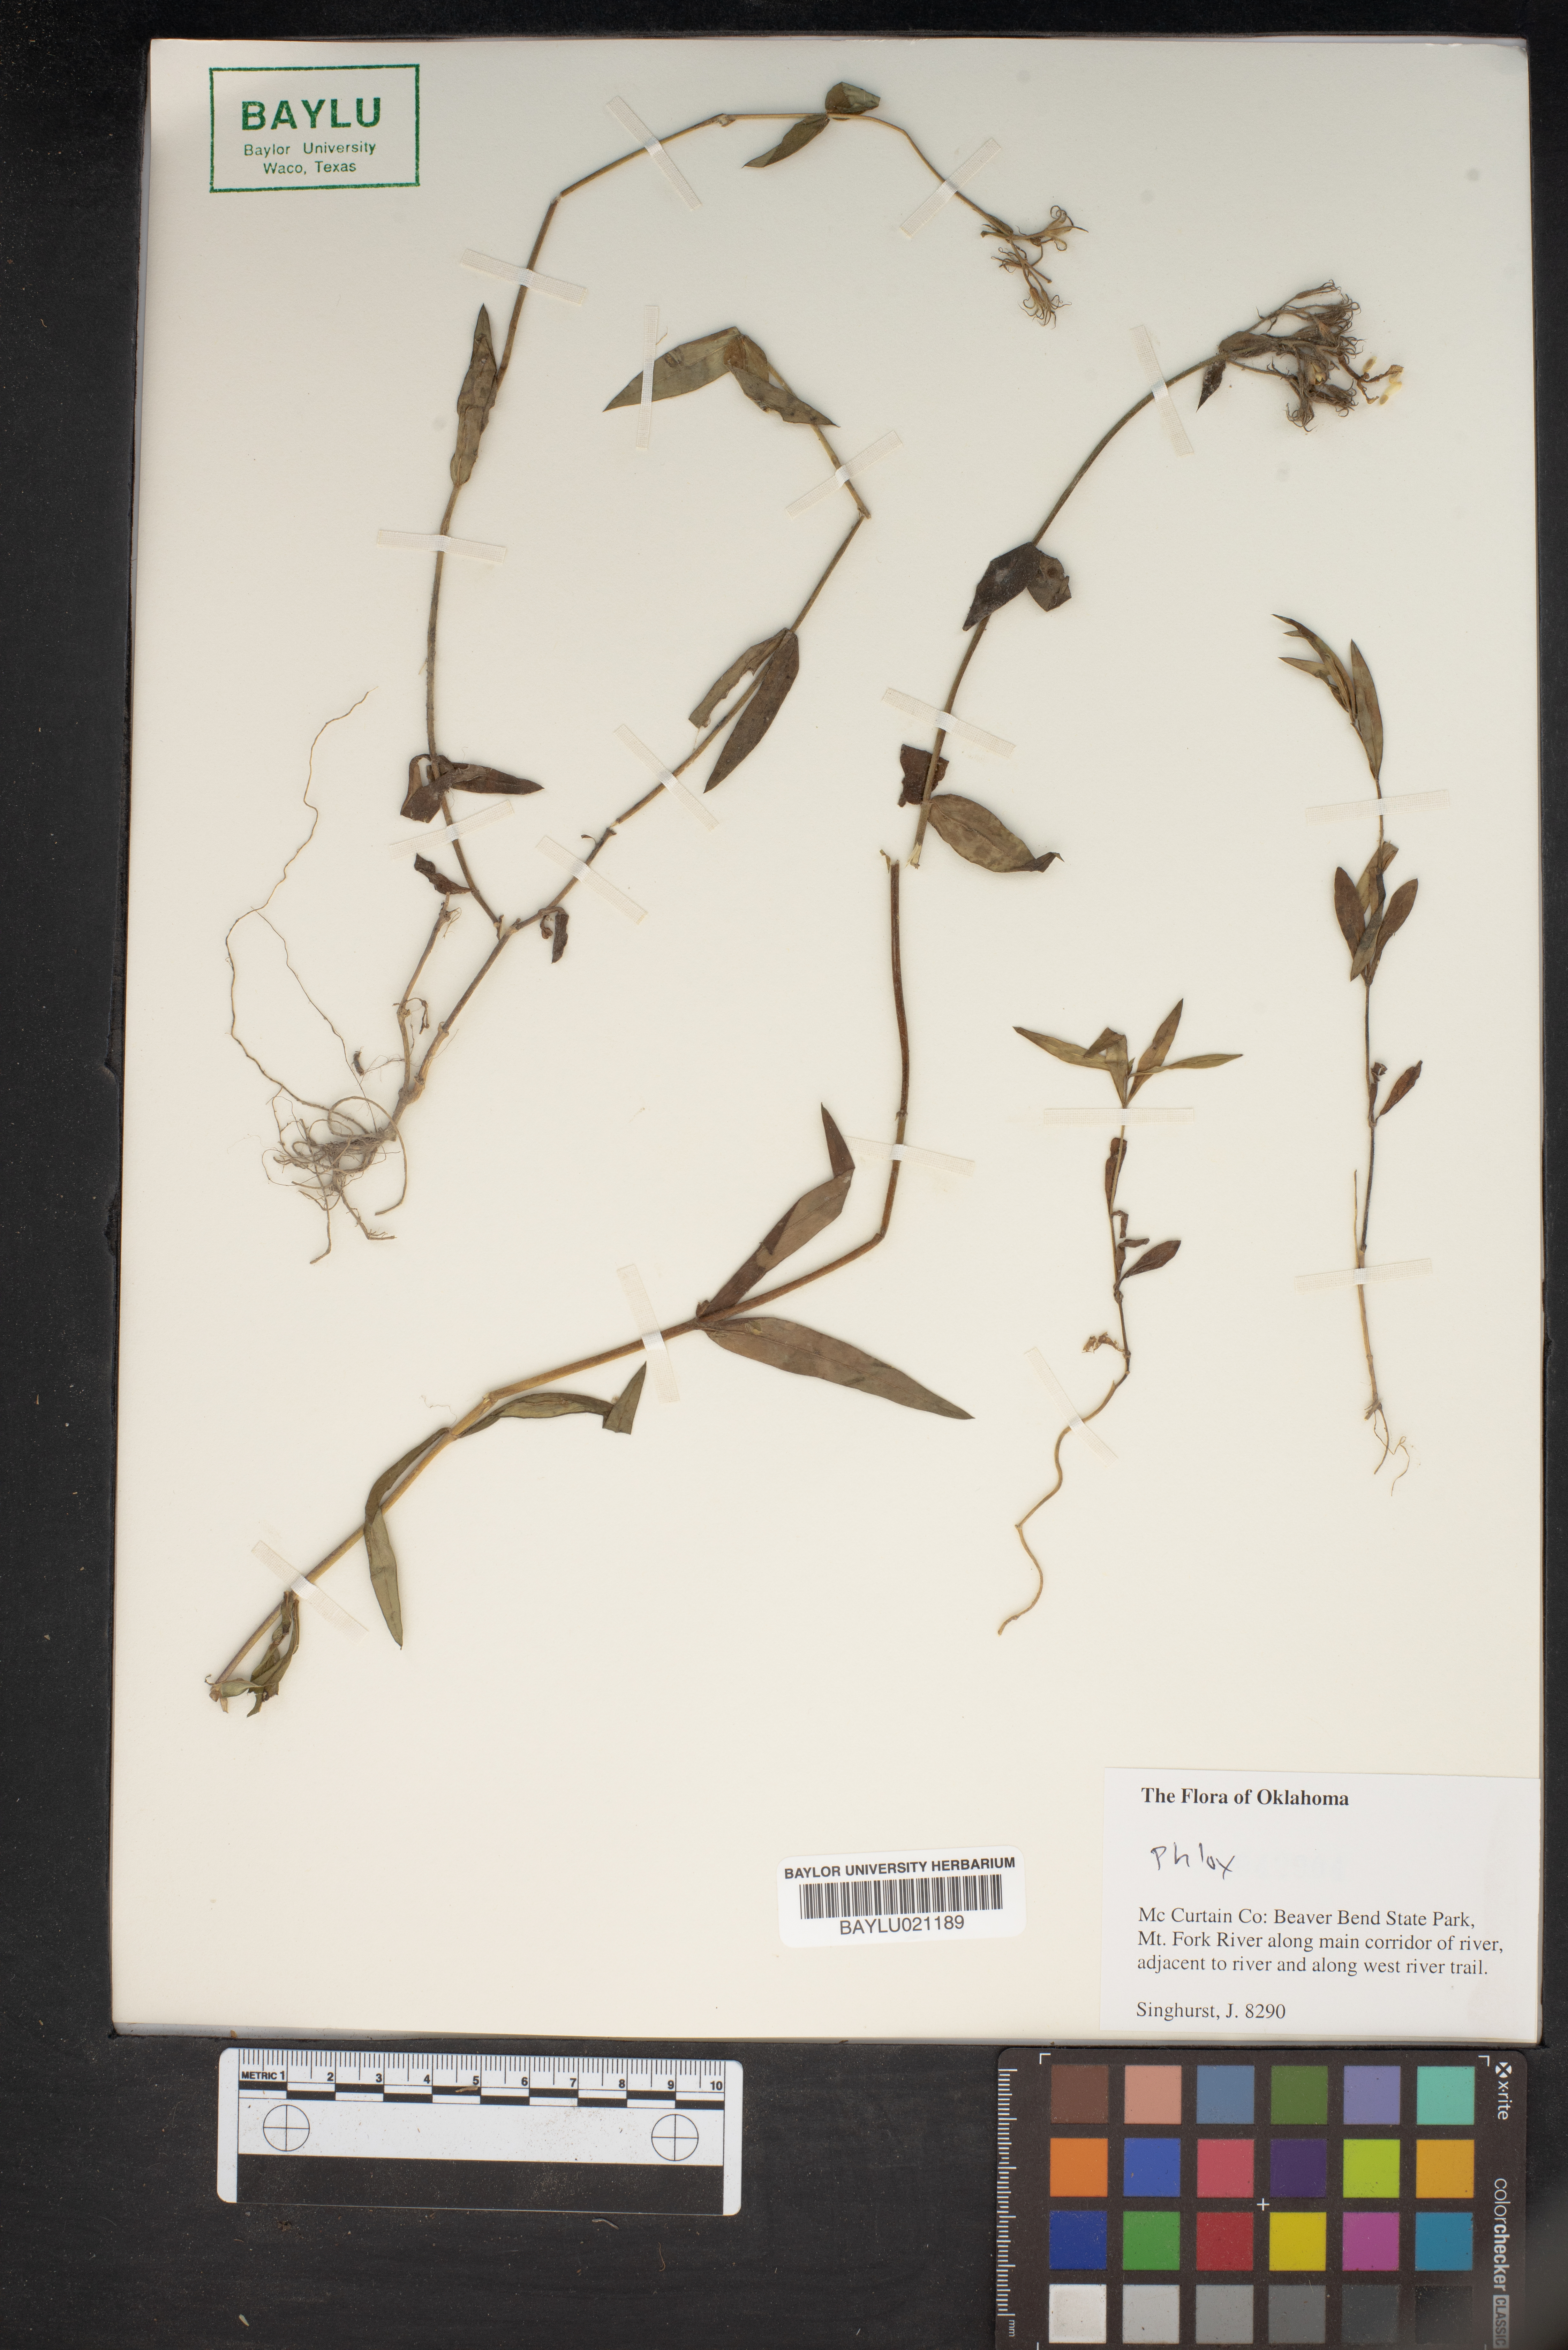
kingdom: Plantae
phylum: Tracheophyta
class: Magnoliopsida
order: Ericales
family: Polemoniaceae
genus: Phlox
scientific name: Phlox
